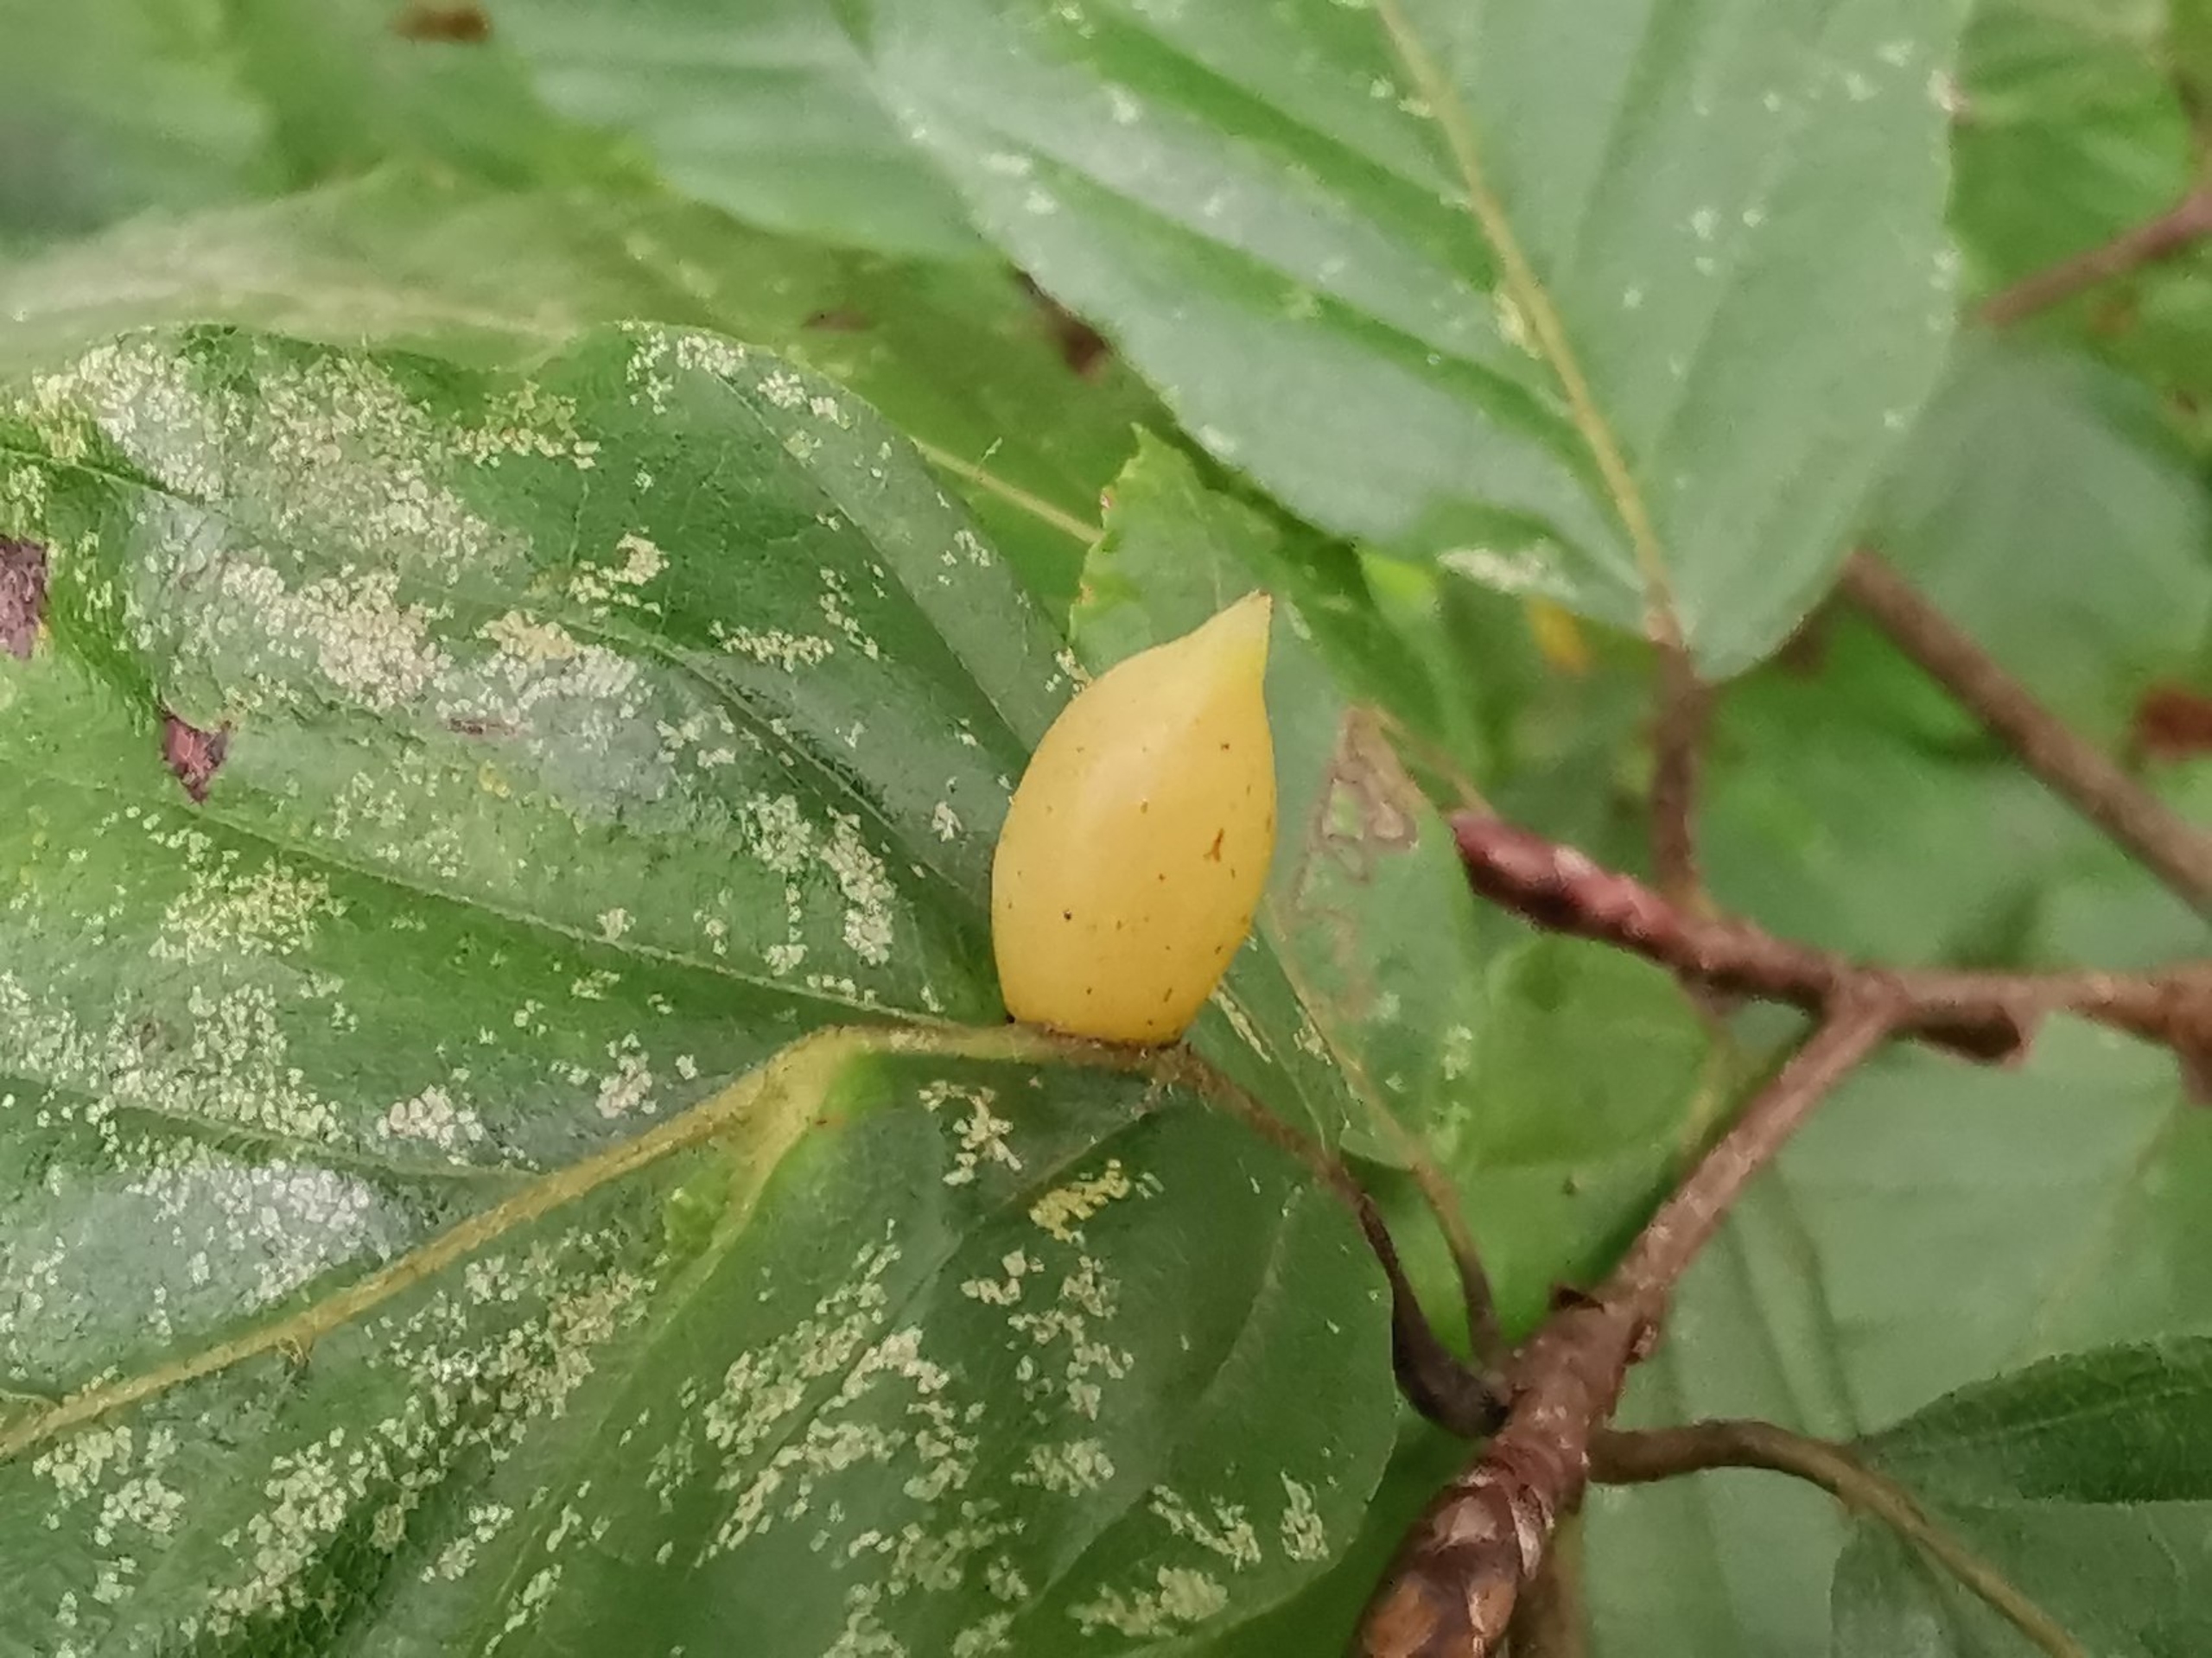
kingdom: Animalia
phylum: Arthropoda
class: Insecta
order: Diptera
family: Cecidomyiidae
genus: Mikiola
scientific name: Mikiola fagi
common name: Bøgegalmyg
